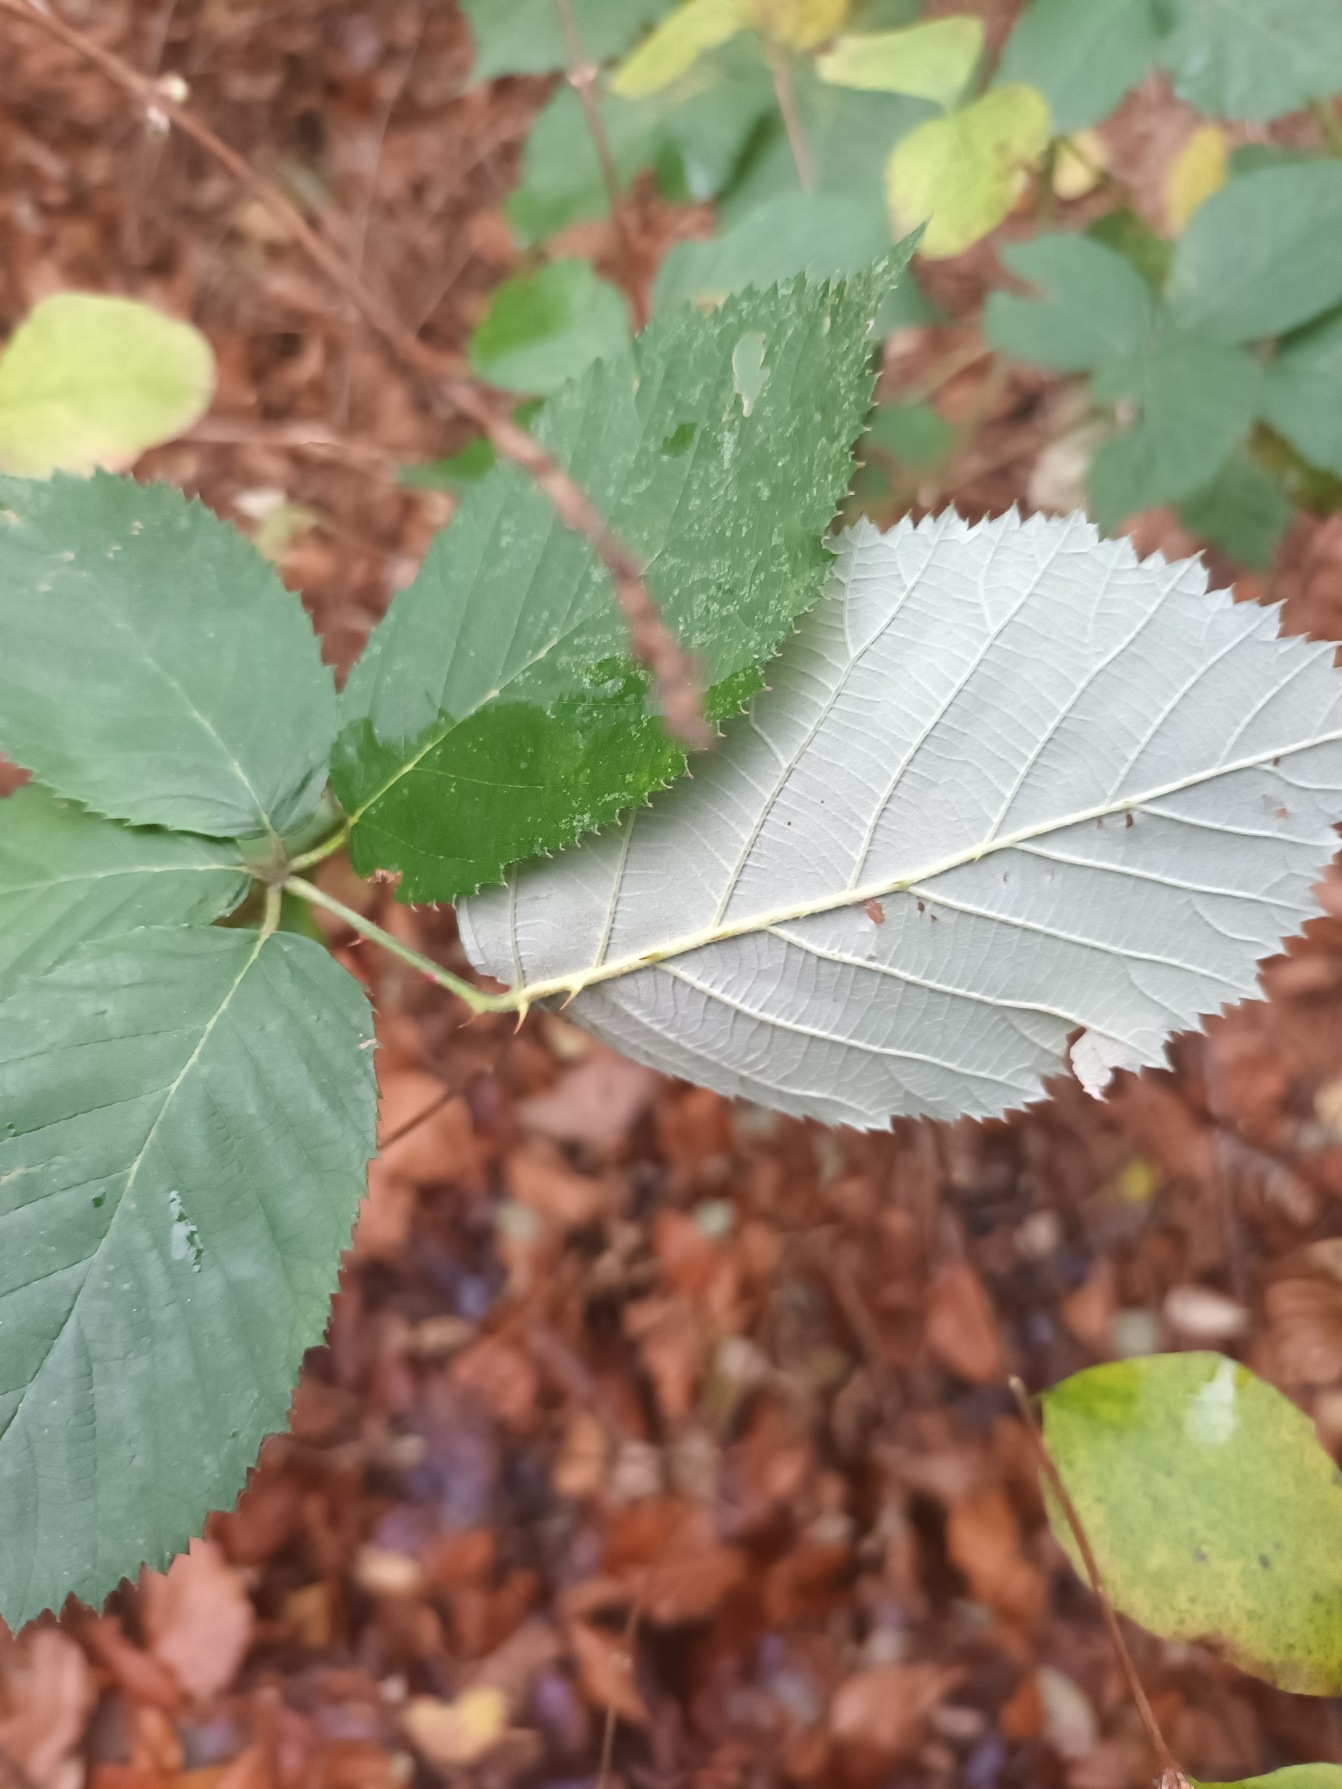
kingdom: Plantae
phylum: Tracheophyta
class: Magnoliopsida
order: Rosales
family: Rosaceae
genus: Rubus
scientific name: Rubus armeniacus
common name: Armensk brombær
